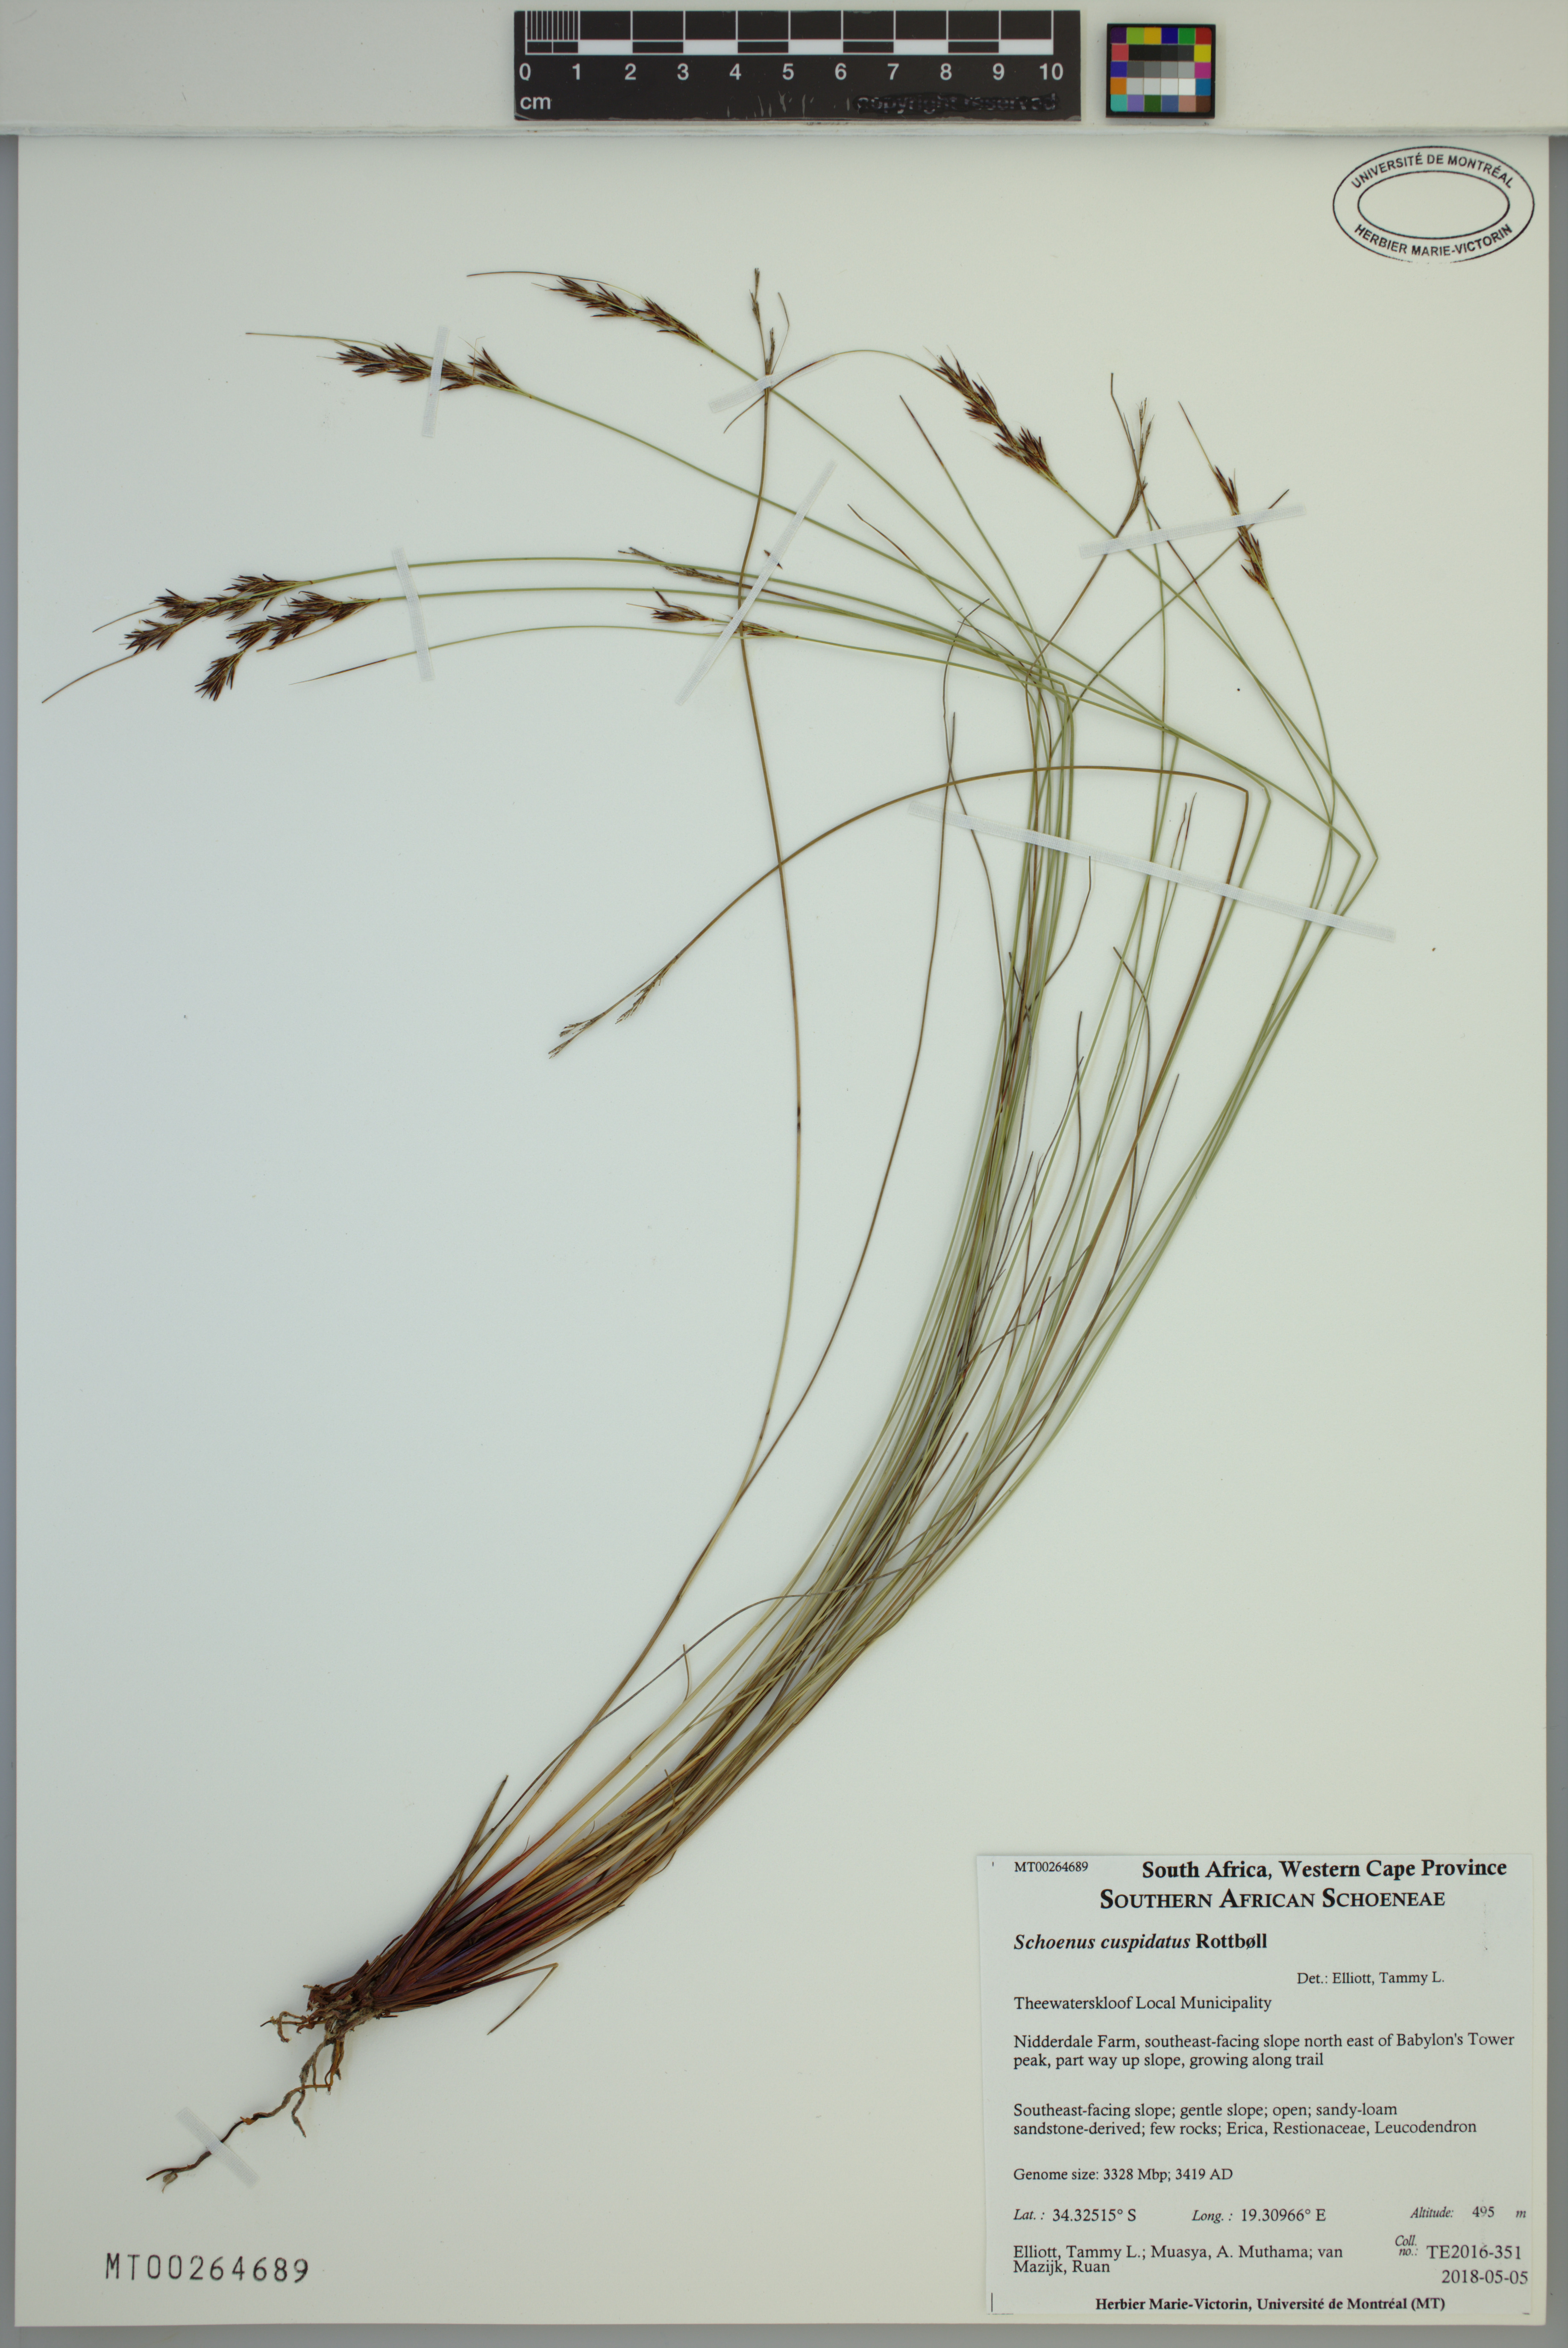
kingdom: Plantae
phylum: Tracheophyta
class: Liliopsida
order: Poales
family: Cyperaceae
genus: Schoenus
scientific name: Schoenus cuspidatus
